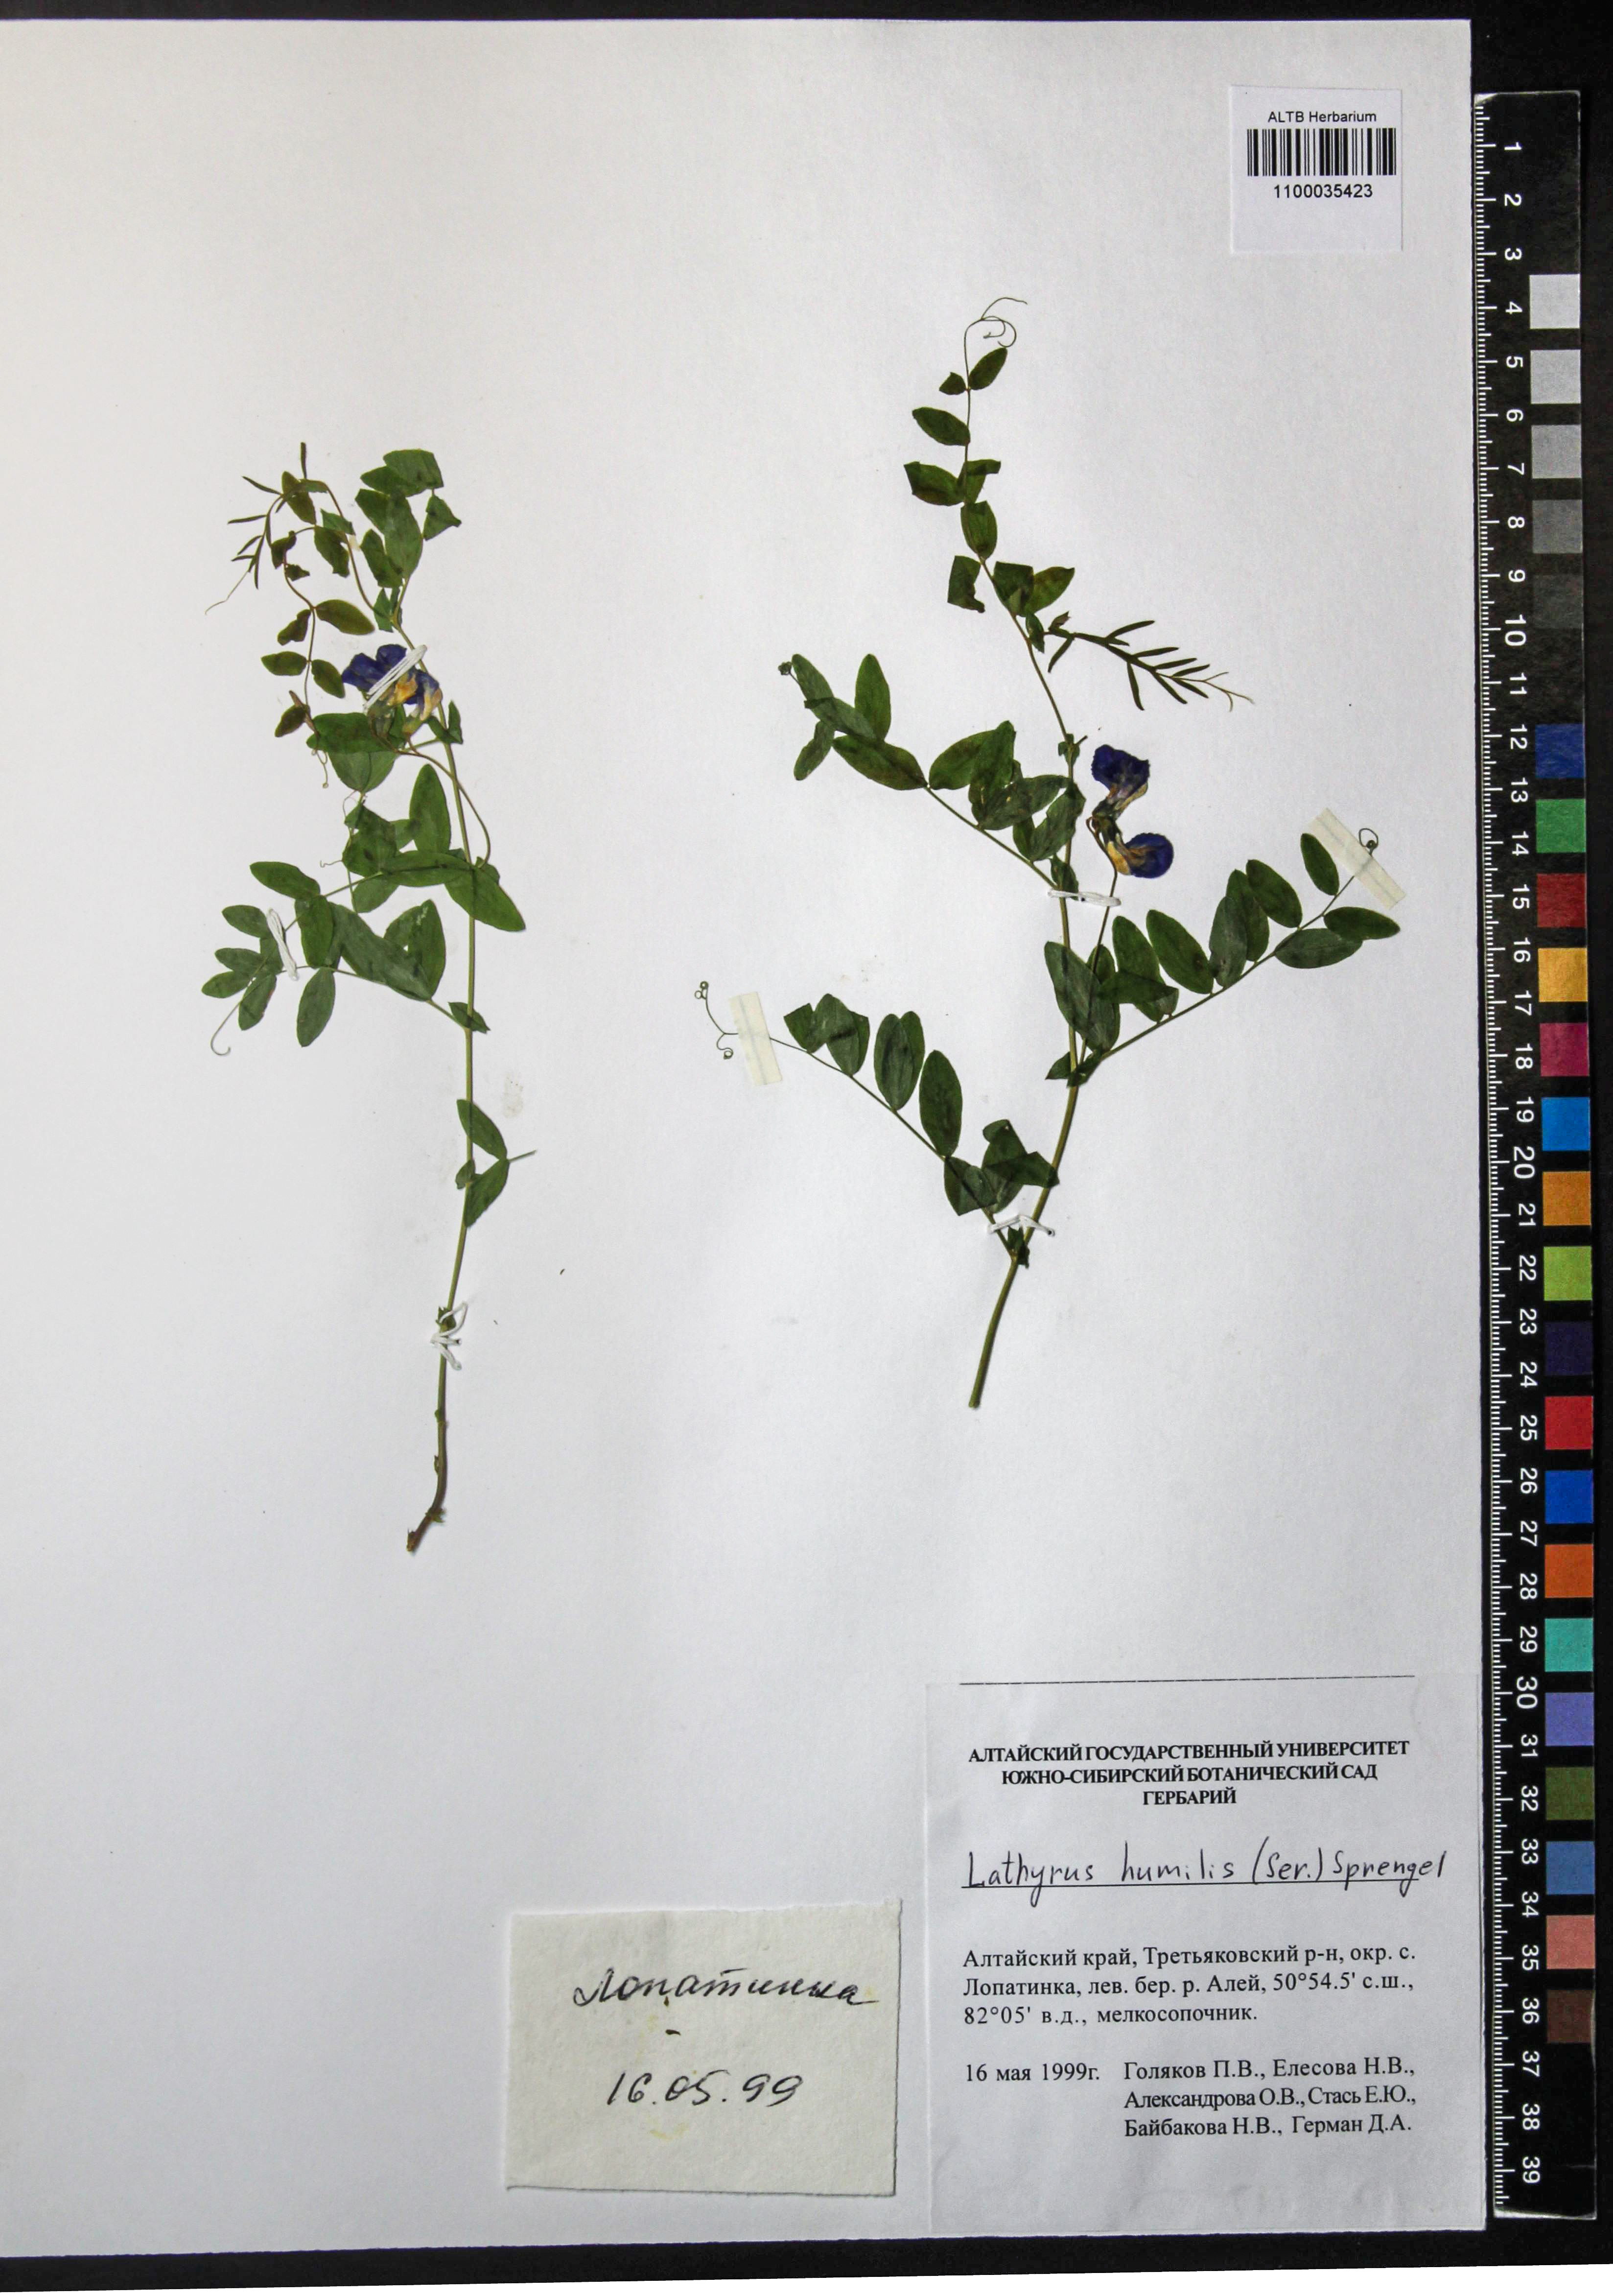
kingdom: Plantae
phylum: Tracheophyta
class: Magnoliopsida
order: Fabales
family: Fabaceae
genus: Lathyrus
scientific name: Lathyrus humilis
